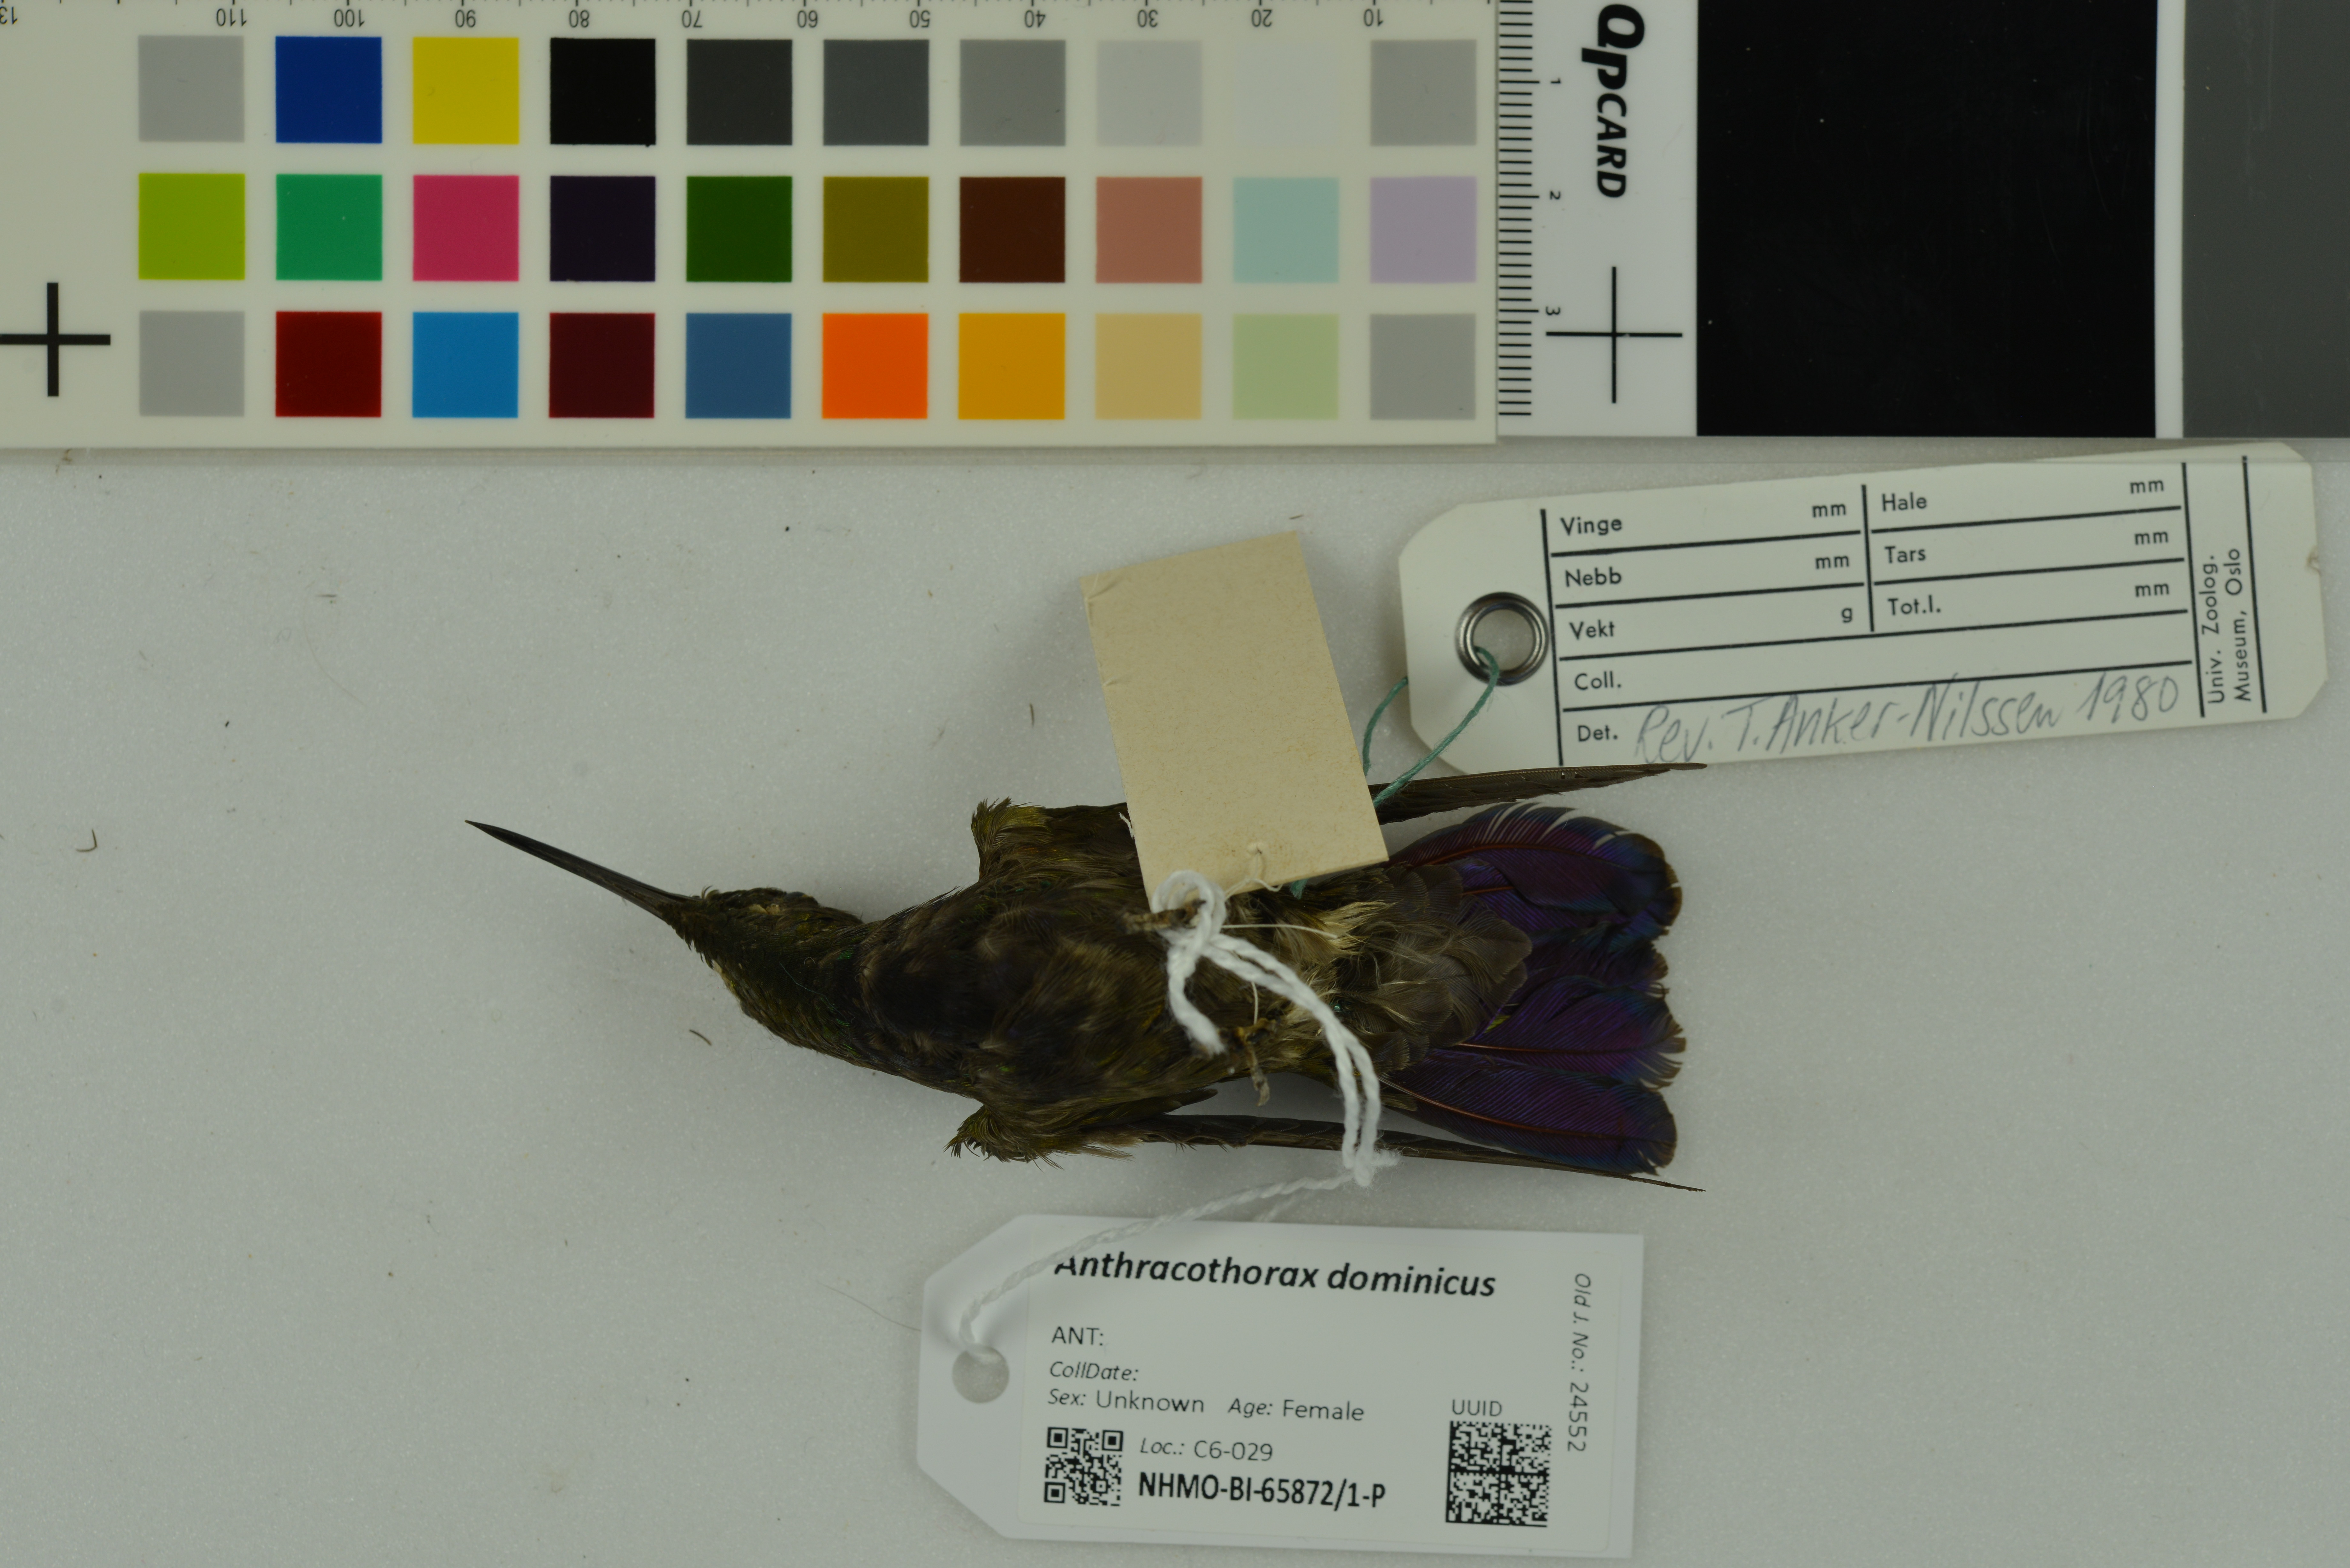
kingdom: Animalia
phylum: Chordata
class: Aves
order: Apodiformes
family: Trochilidae
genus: Anthracothorax
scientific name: Anthracothorax dominicus
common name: Antillean mango
